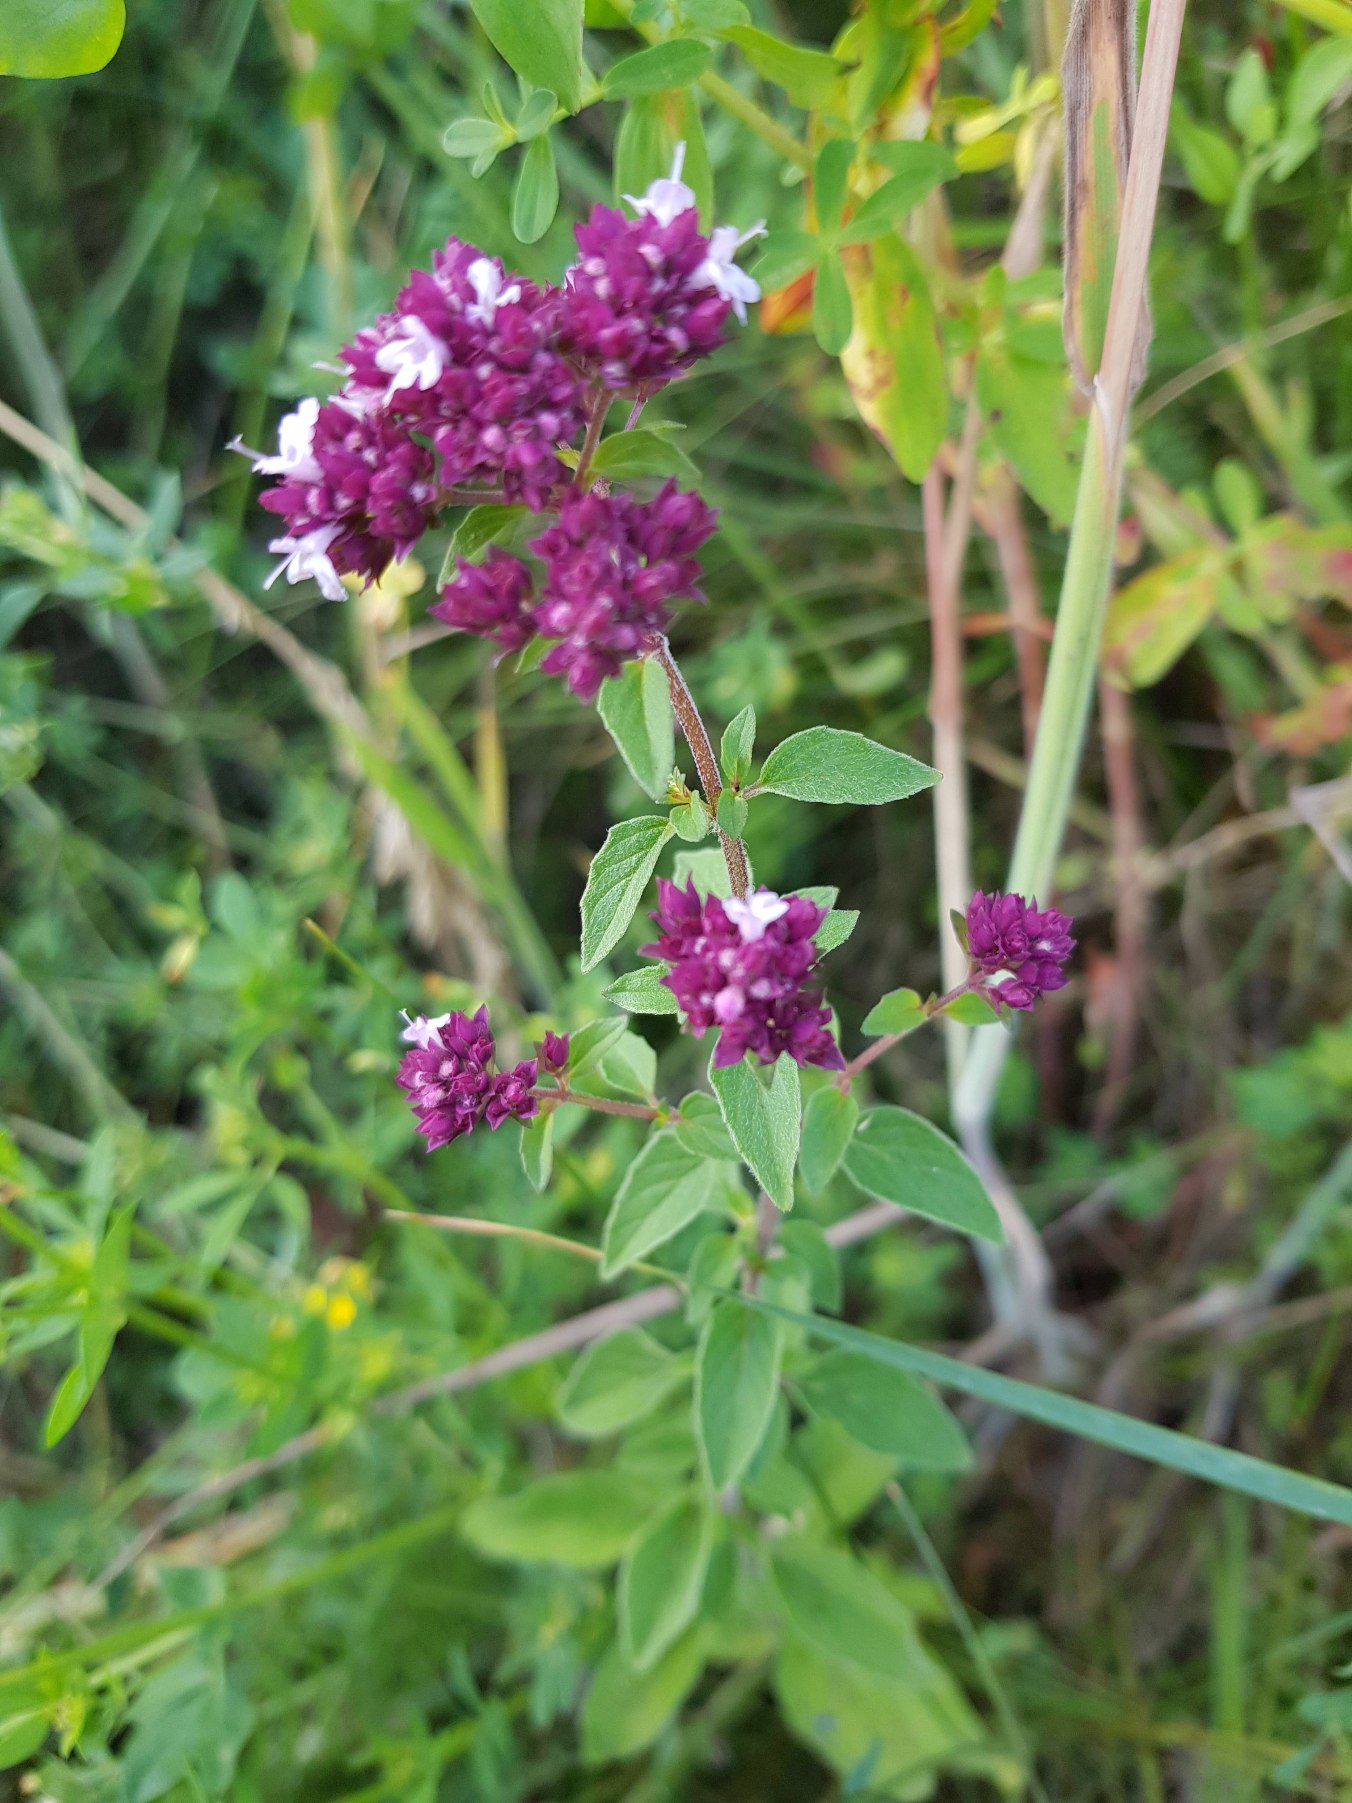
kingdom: Plantae
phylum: Tracheophyta
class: Magnoliopsida
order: Lamiales
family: Lamiaceae
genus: Origanum
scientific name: Origanum vulgare
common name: Merian
